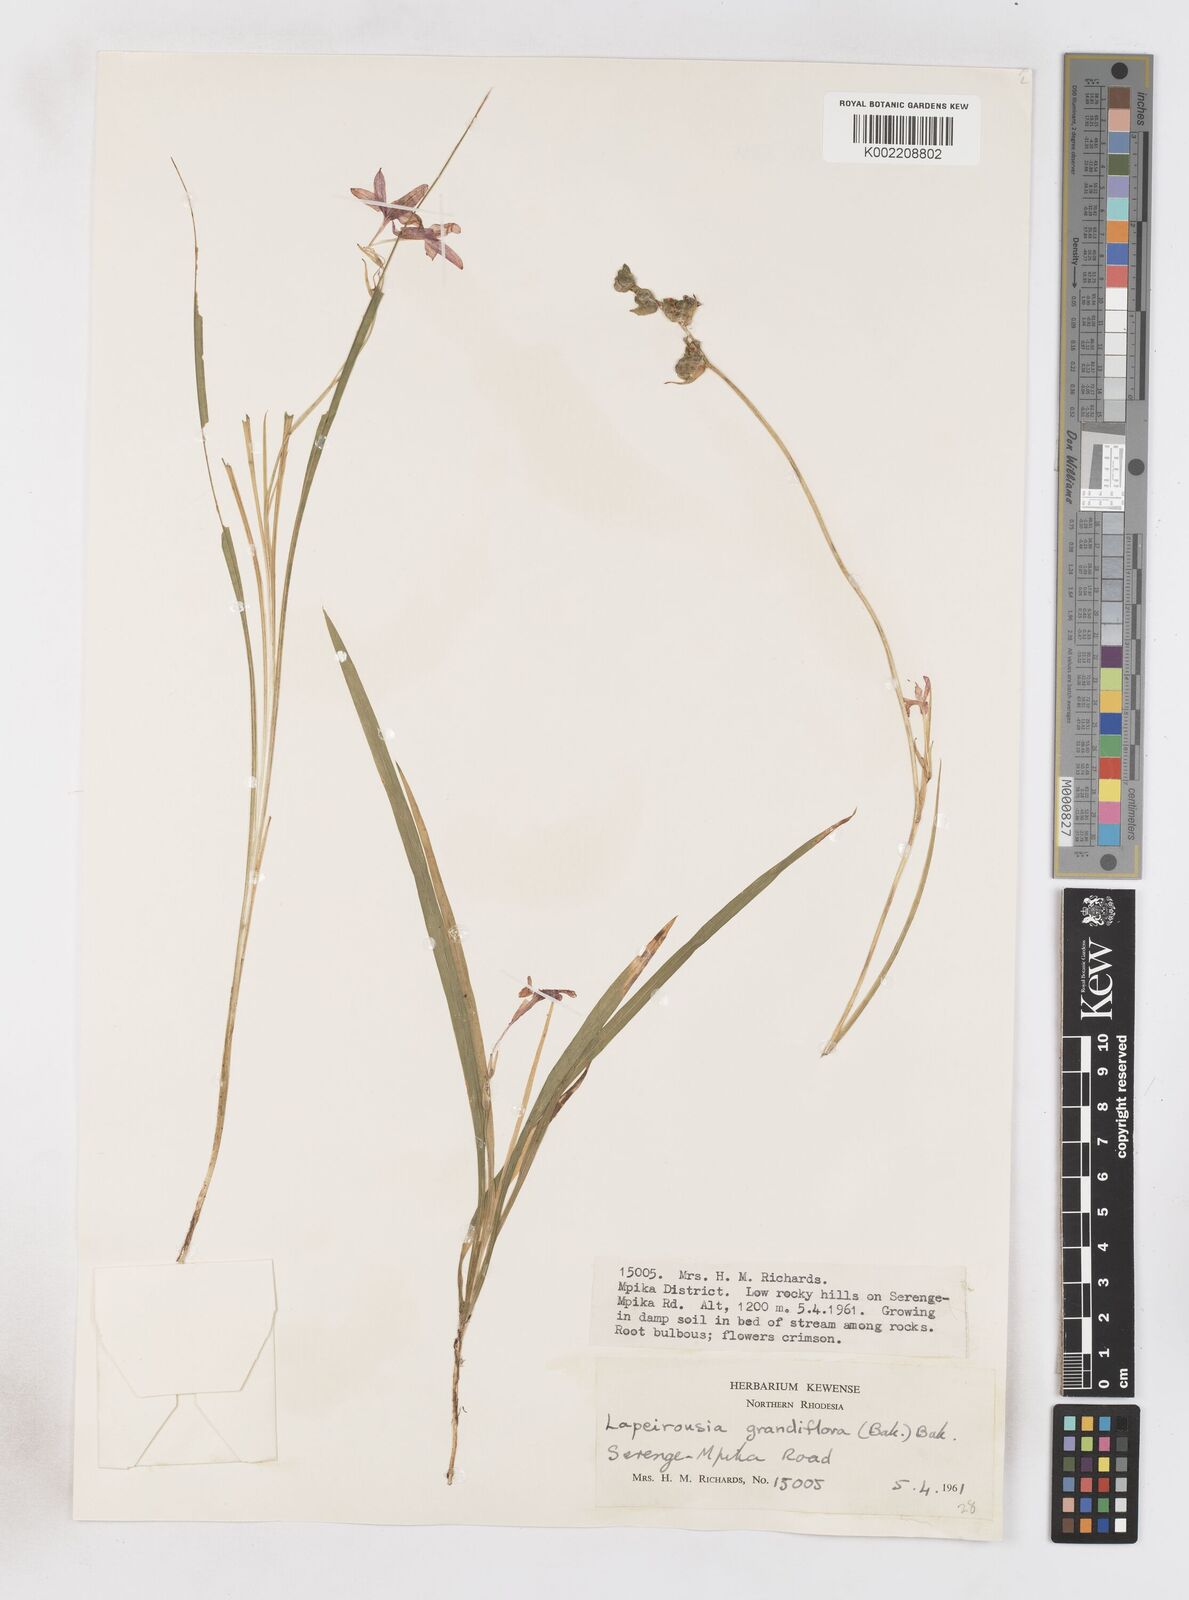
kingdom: Plantae
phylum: Tracheophyta
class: Liliopsida
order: Asparagales
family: Iridaceae
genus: Freesia
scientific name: Freesia laxa
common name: False freesia
